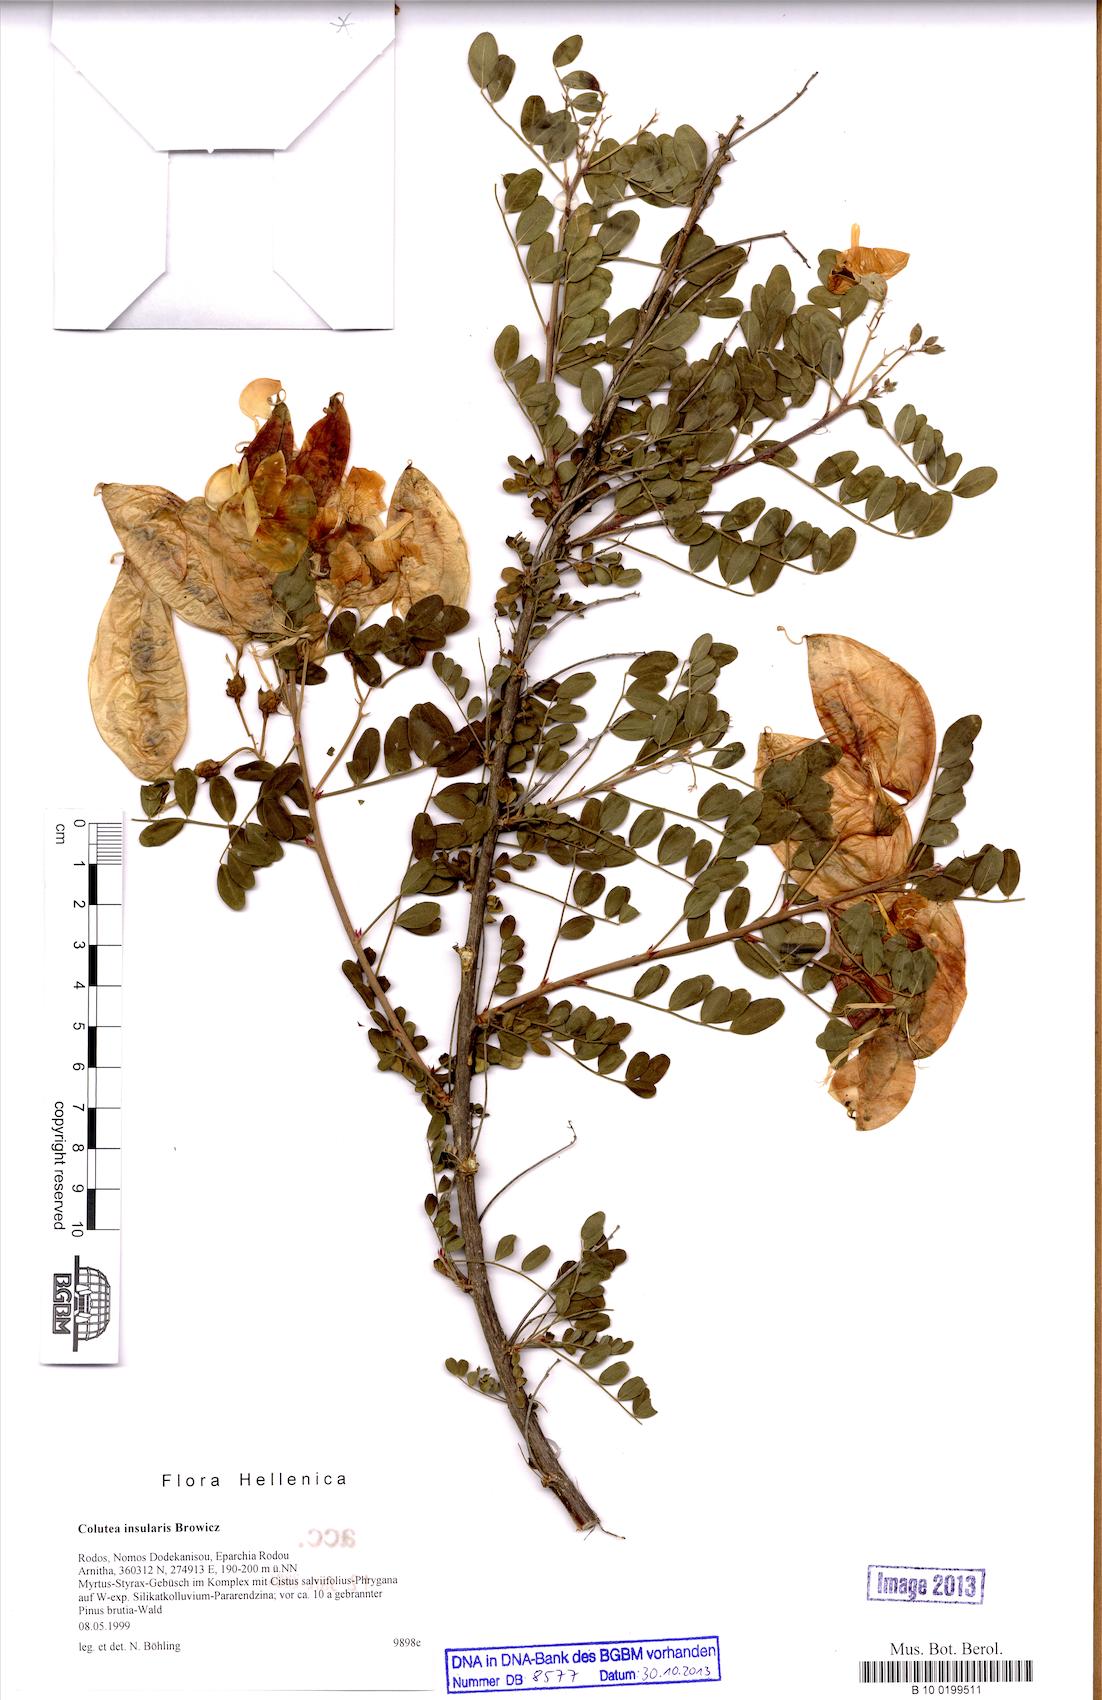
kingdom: Plantae
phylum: Tracheophyta
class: Magnoliopsida
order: Fabales
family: Fabaceae
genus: Colutea
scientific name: Colutea insularis
